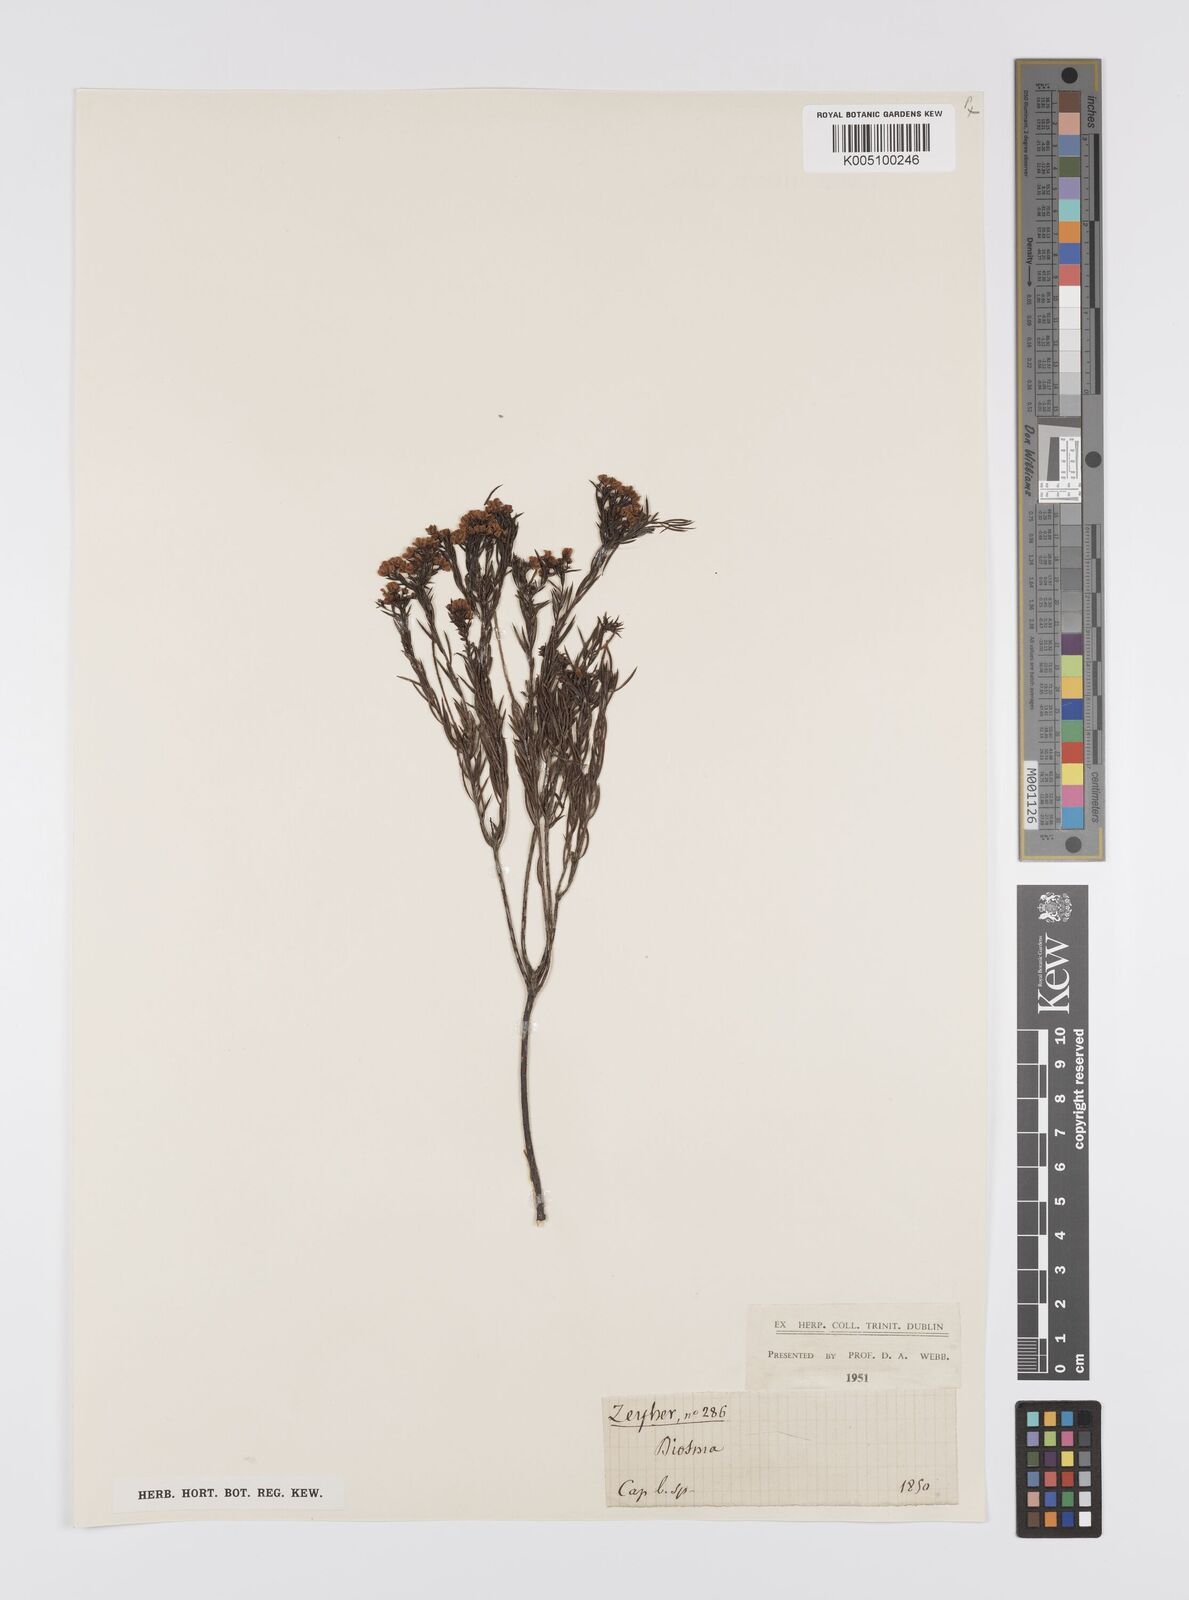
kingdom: Plantae
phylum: Tracheophyta
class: Magnoliopsida
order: Sapindales
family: Rutaceae
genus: Diosma
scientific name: Diosma hirsuta
